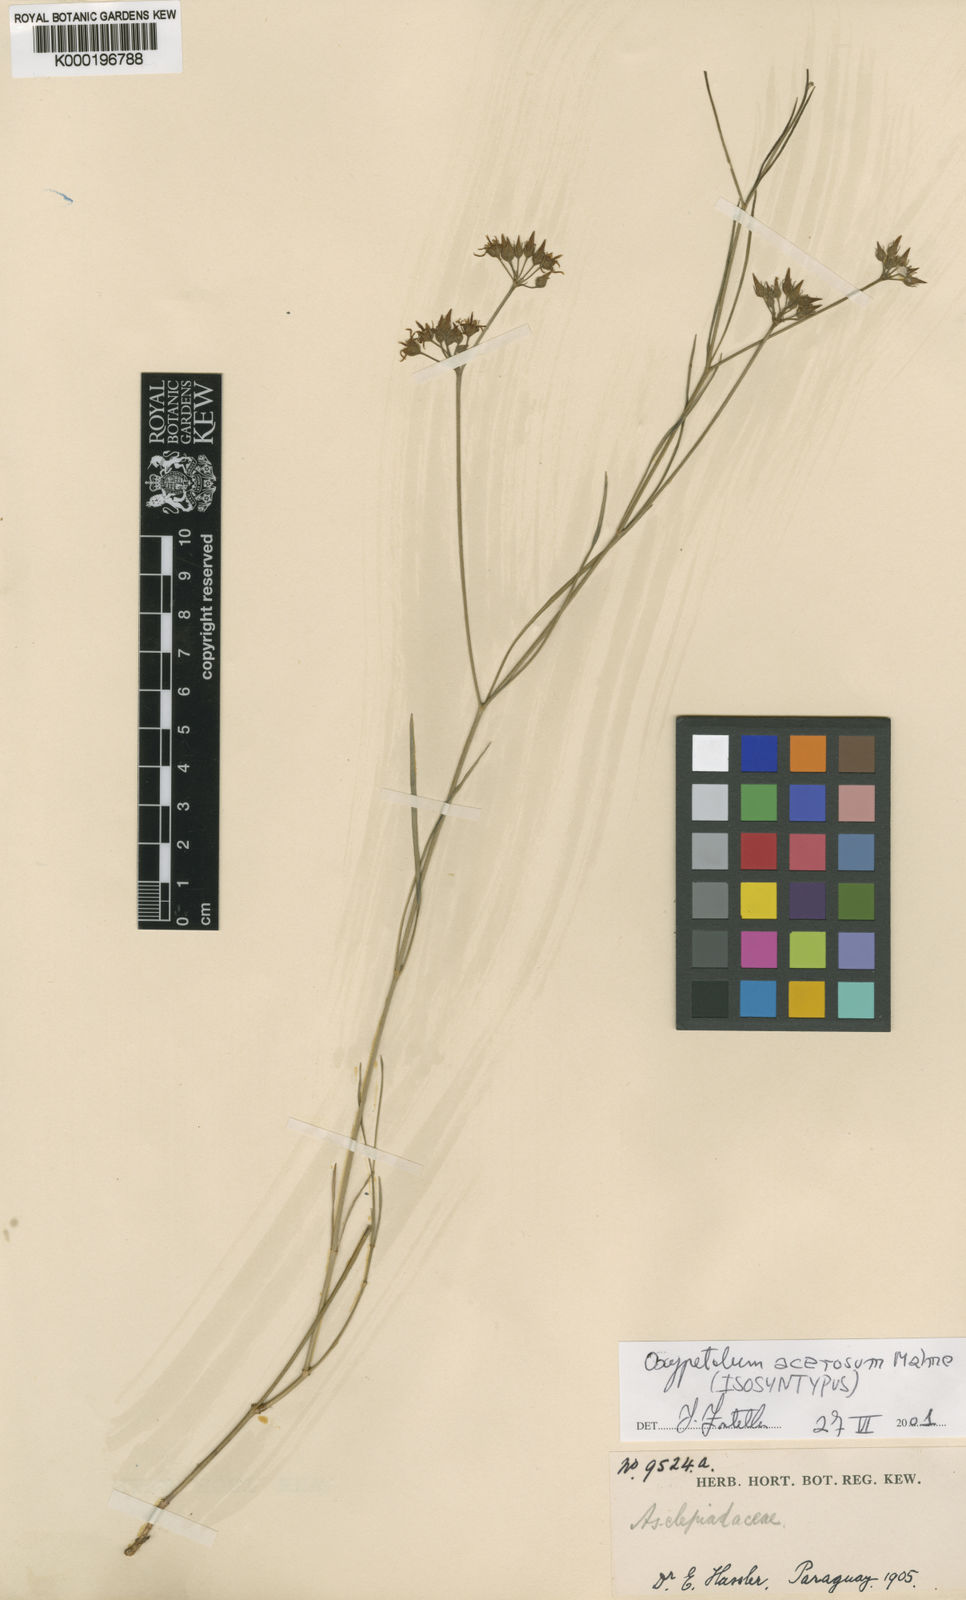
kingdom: Plantae
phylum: Tracheophyta
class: Magnoliopsida
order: Gentianales
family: Apocynaceae
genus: Oxypetalum
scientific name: Oxypetalum acerosum
